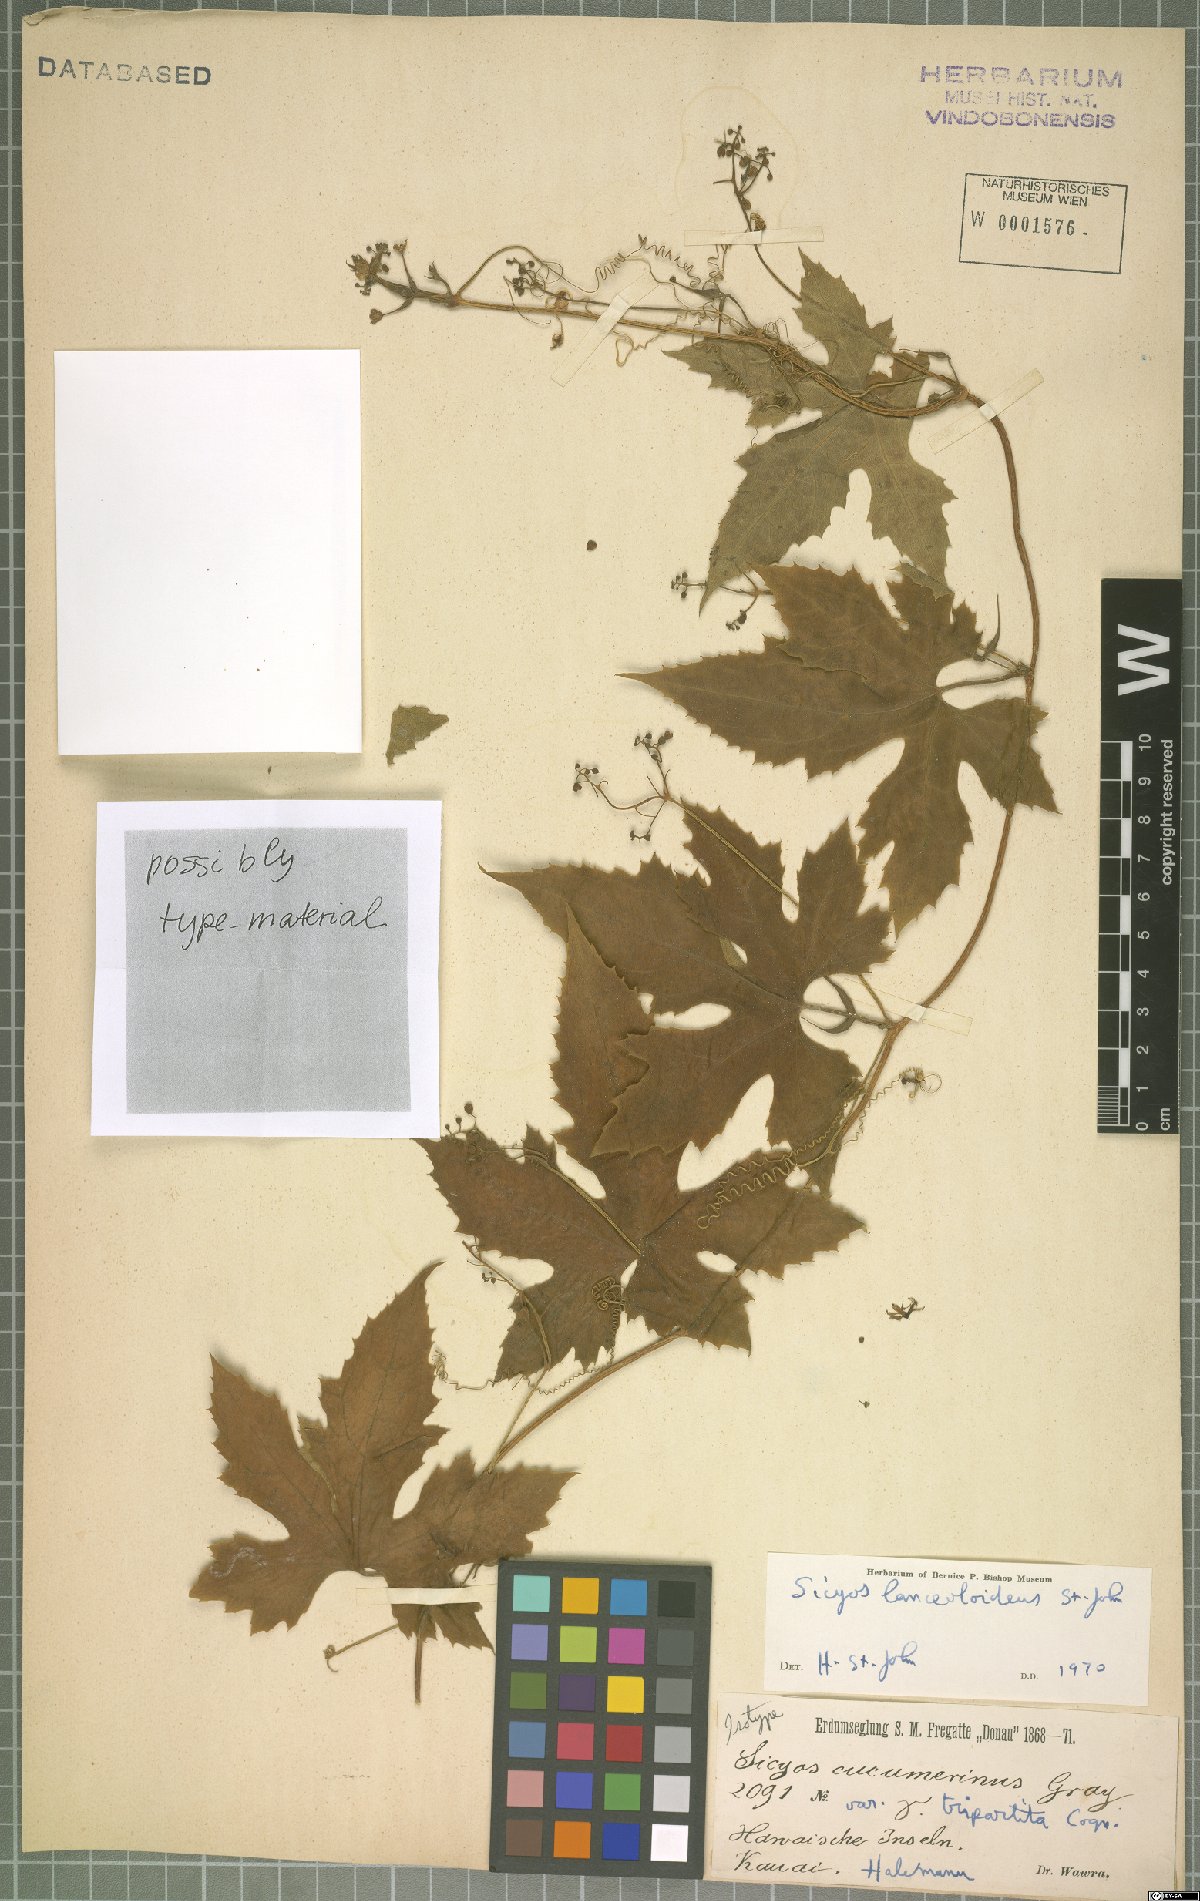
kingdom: Plantae
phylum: Tracheophyta
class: Magnoliopsida
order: Cucurbitales
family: Cucurbitaceae
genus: Sicyos
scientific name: Sicyos lanceoloideus
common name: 'anunu
